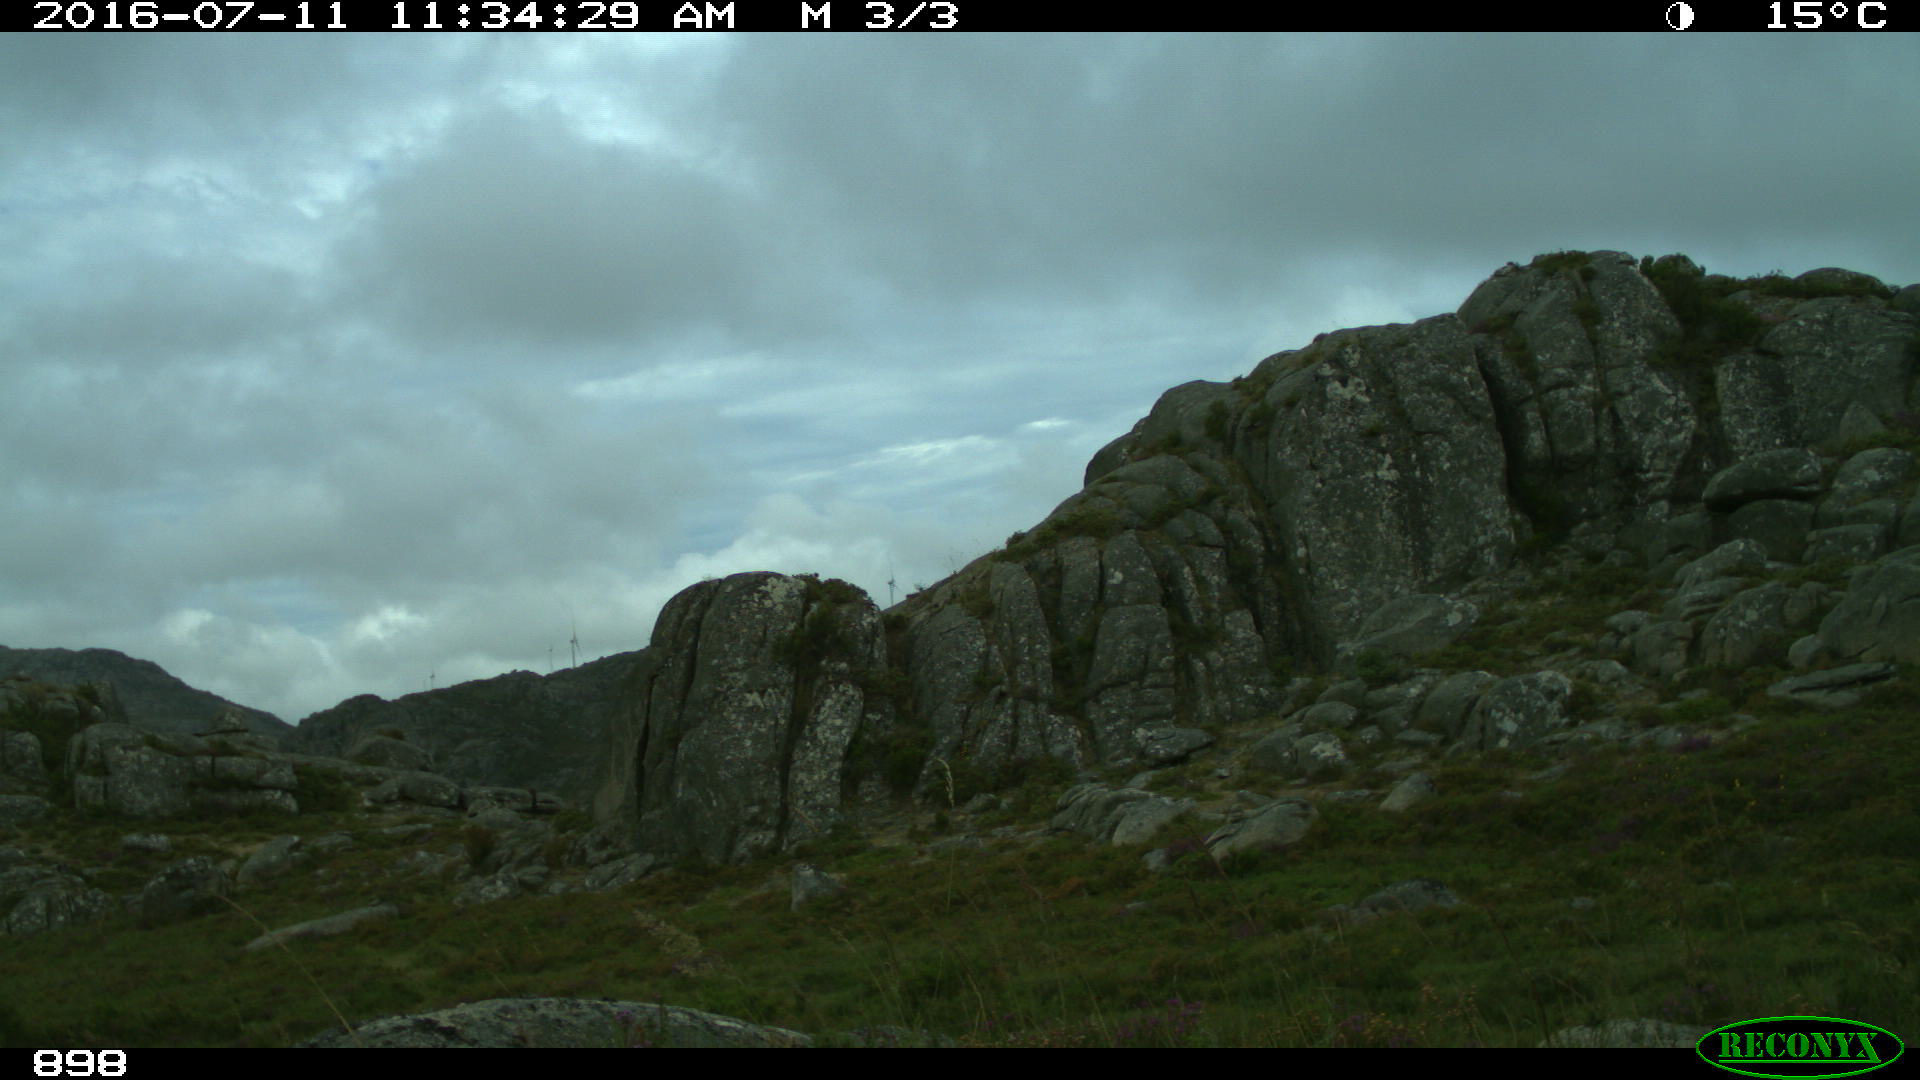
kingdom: Animalia
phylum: Chordata
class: Mammalia
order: Perissodactyla
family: Equidae
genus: Equus
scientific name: Equus caballus
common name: Horse
